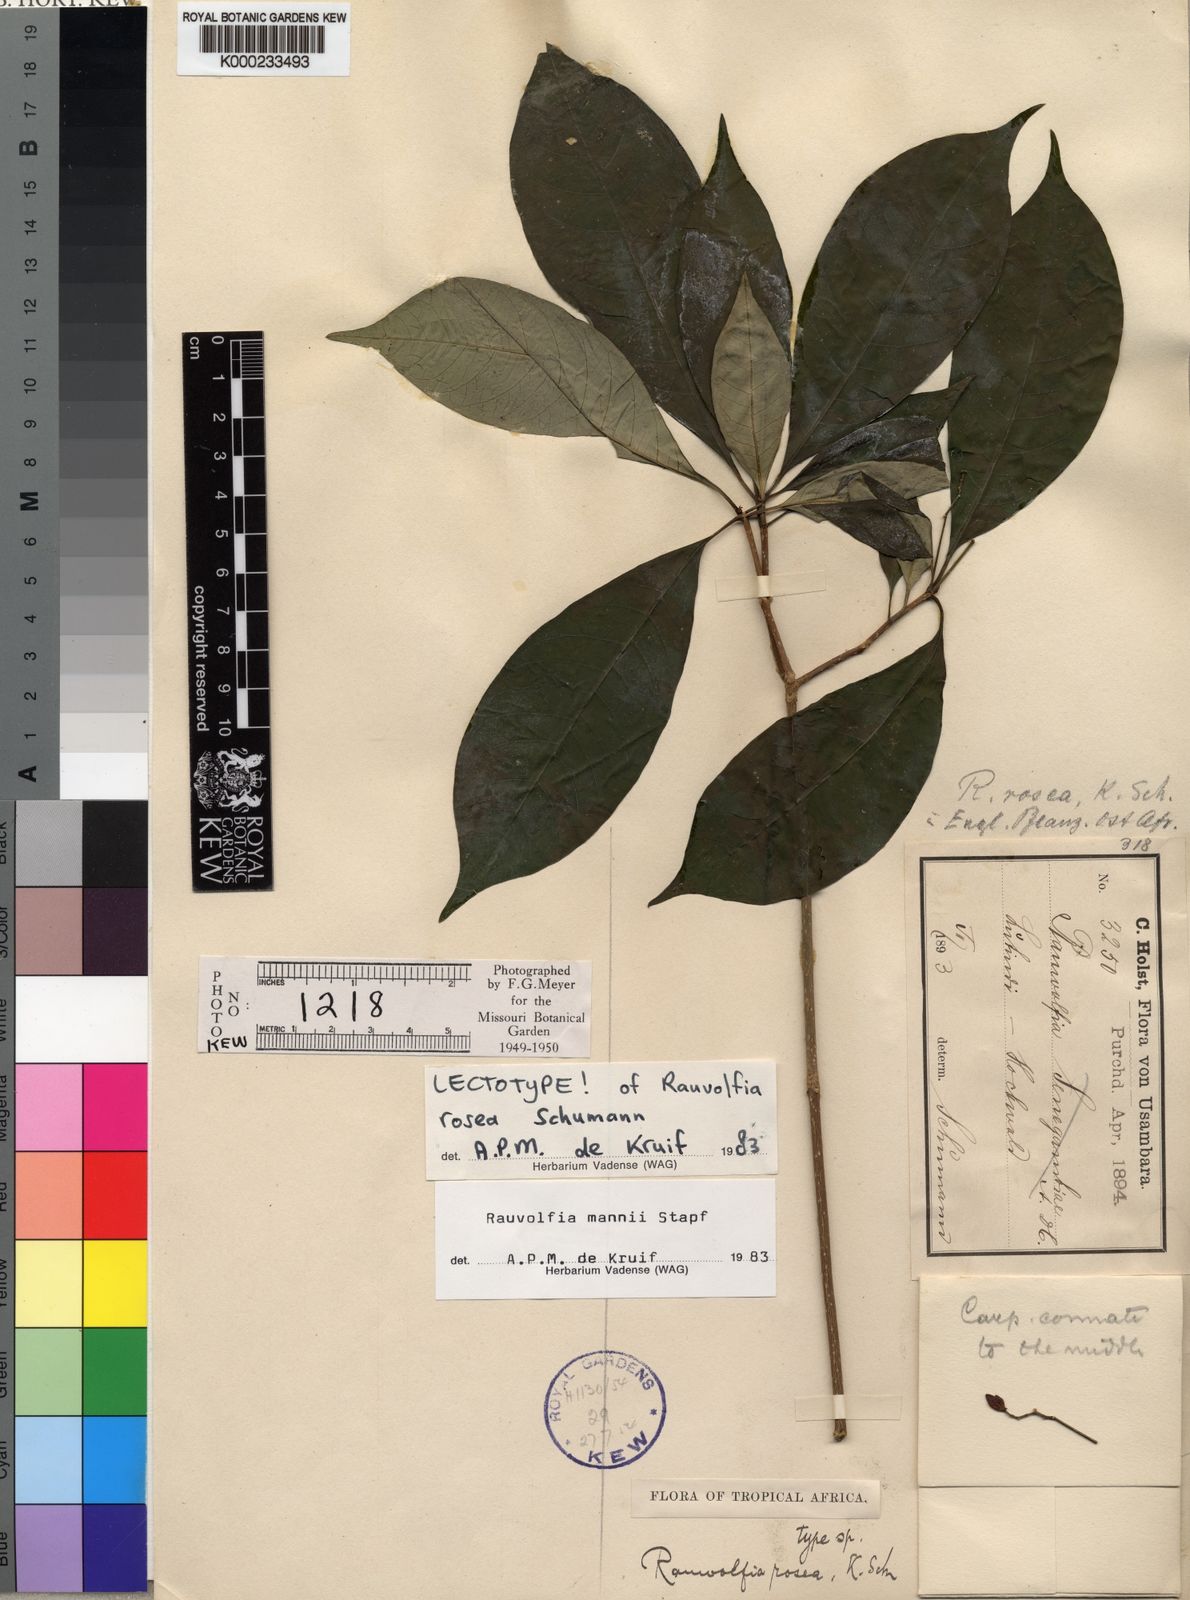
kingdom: Plantae
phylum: Tracheophyta
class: Magnoliopsida
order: Gentianales
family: Apocynaceae
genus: Rauvolfia
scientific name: Rauvolfia mannii
